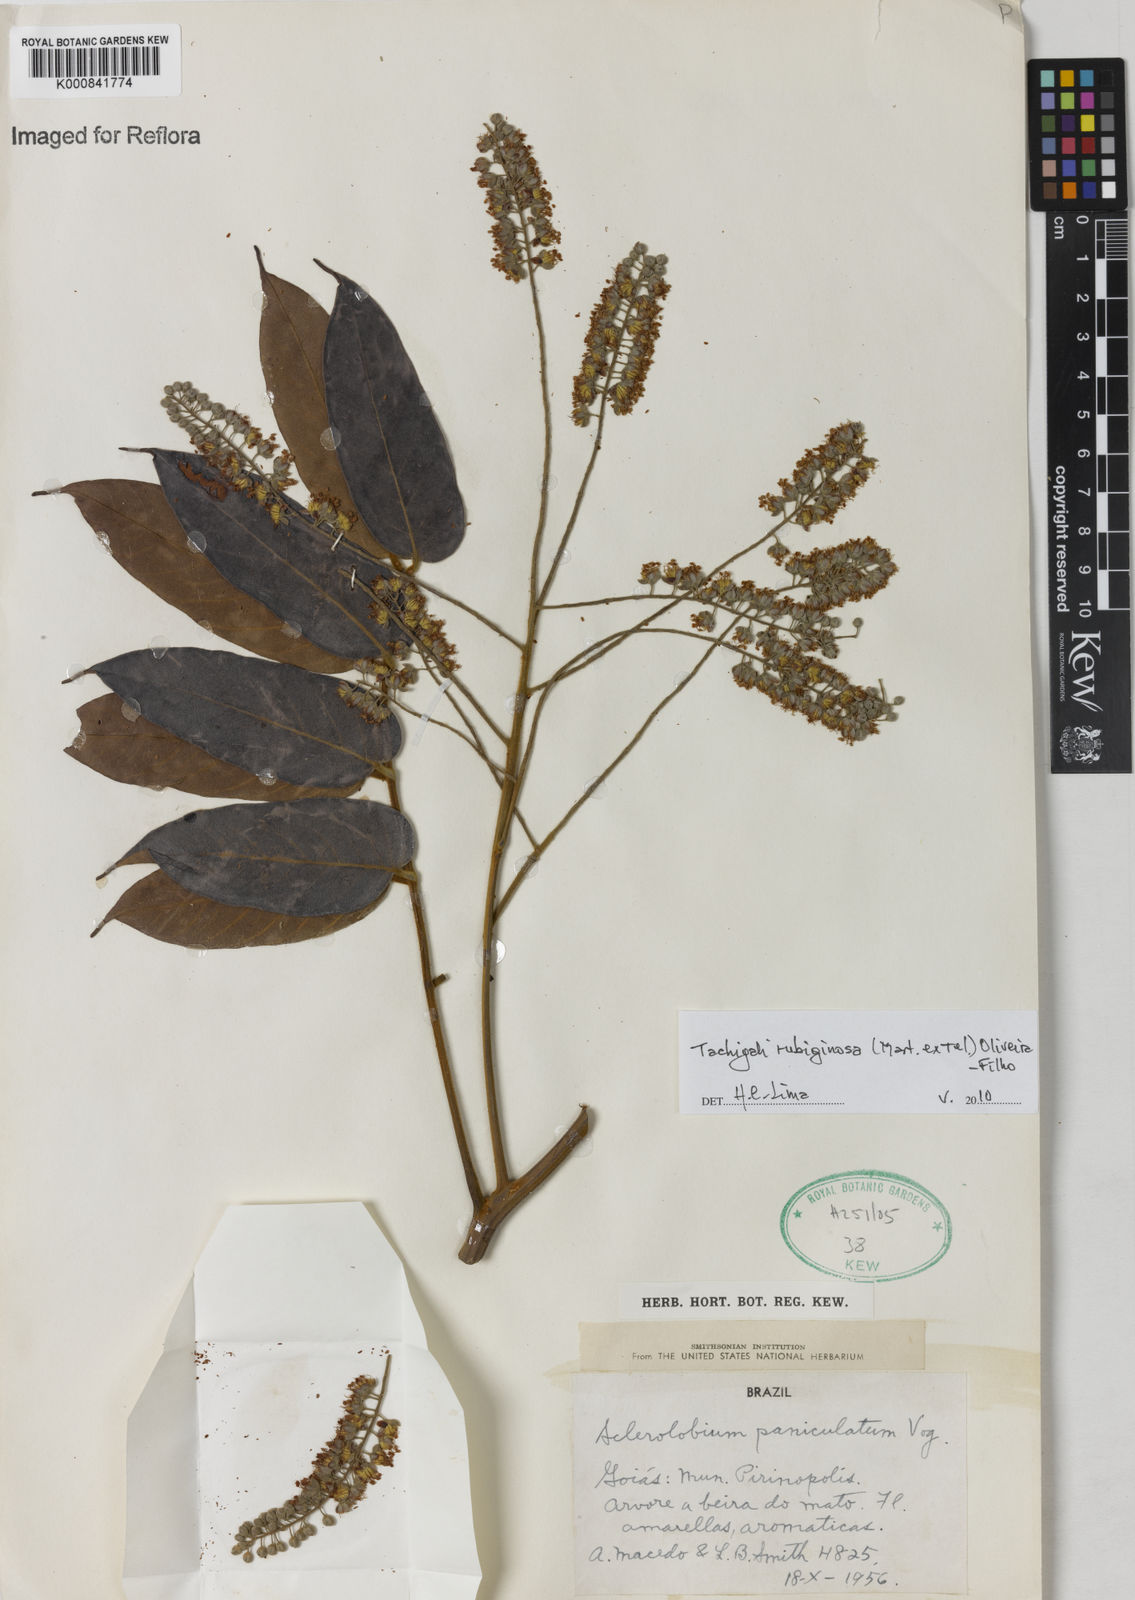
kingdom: Plantae
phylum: Tracheophyta
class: Magnoliopsida
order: Fabales
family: Fabaceae
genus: Tachigali
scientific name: Tachigali rubiginosa
